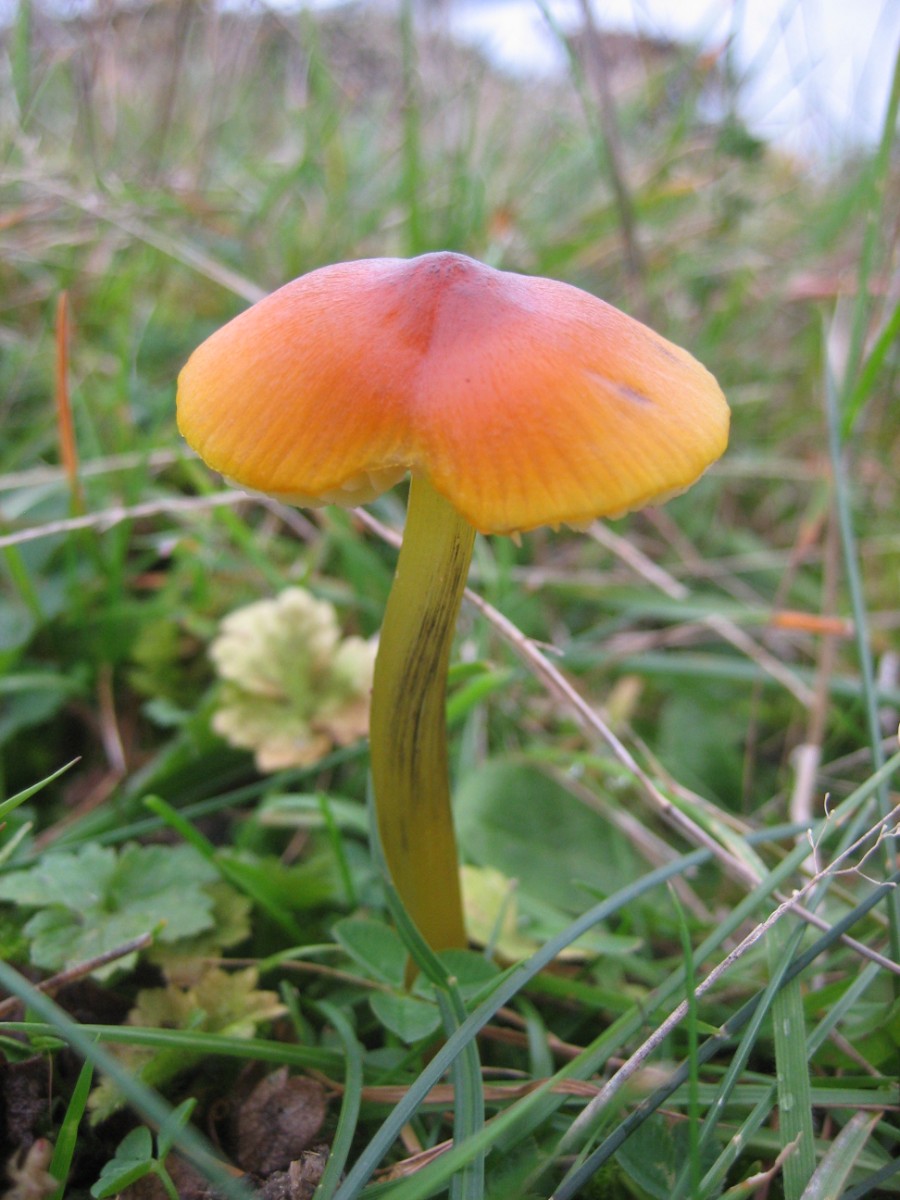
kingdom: Fungi
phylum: Basidiomycota
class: Agaricomycetes
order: Agaricales
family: Hygrophoraceae
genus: Hygrocybe
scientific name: Hygrocybe conica
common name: kegle-vokshat
